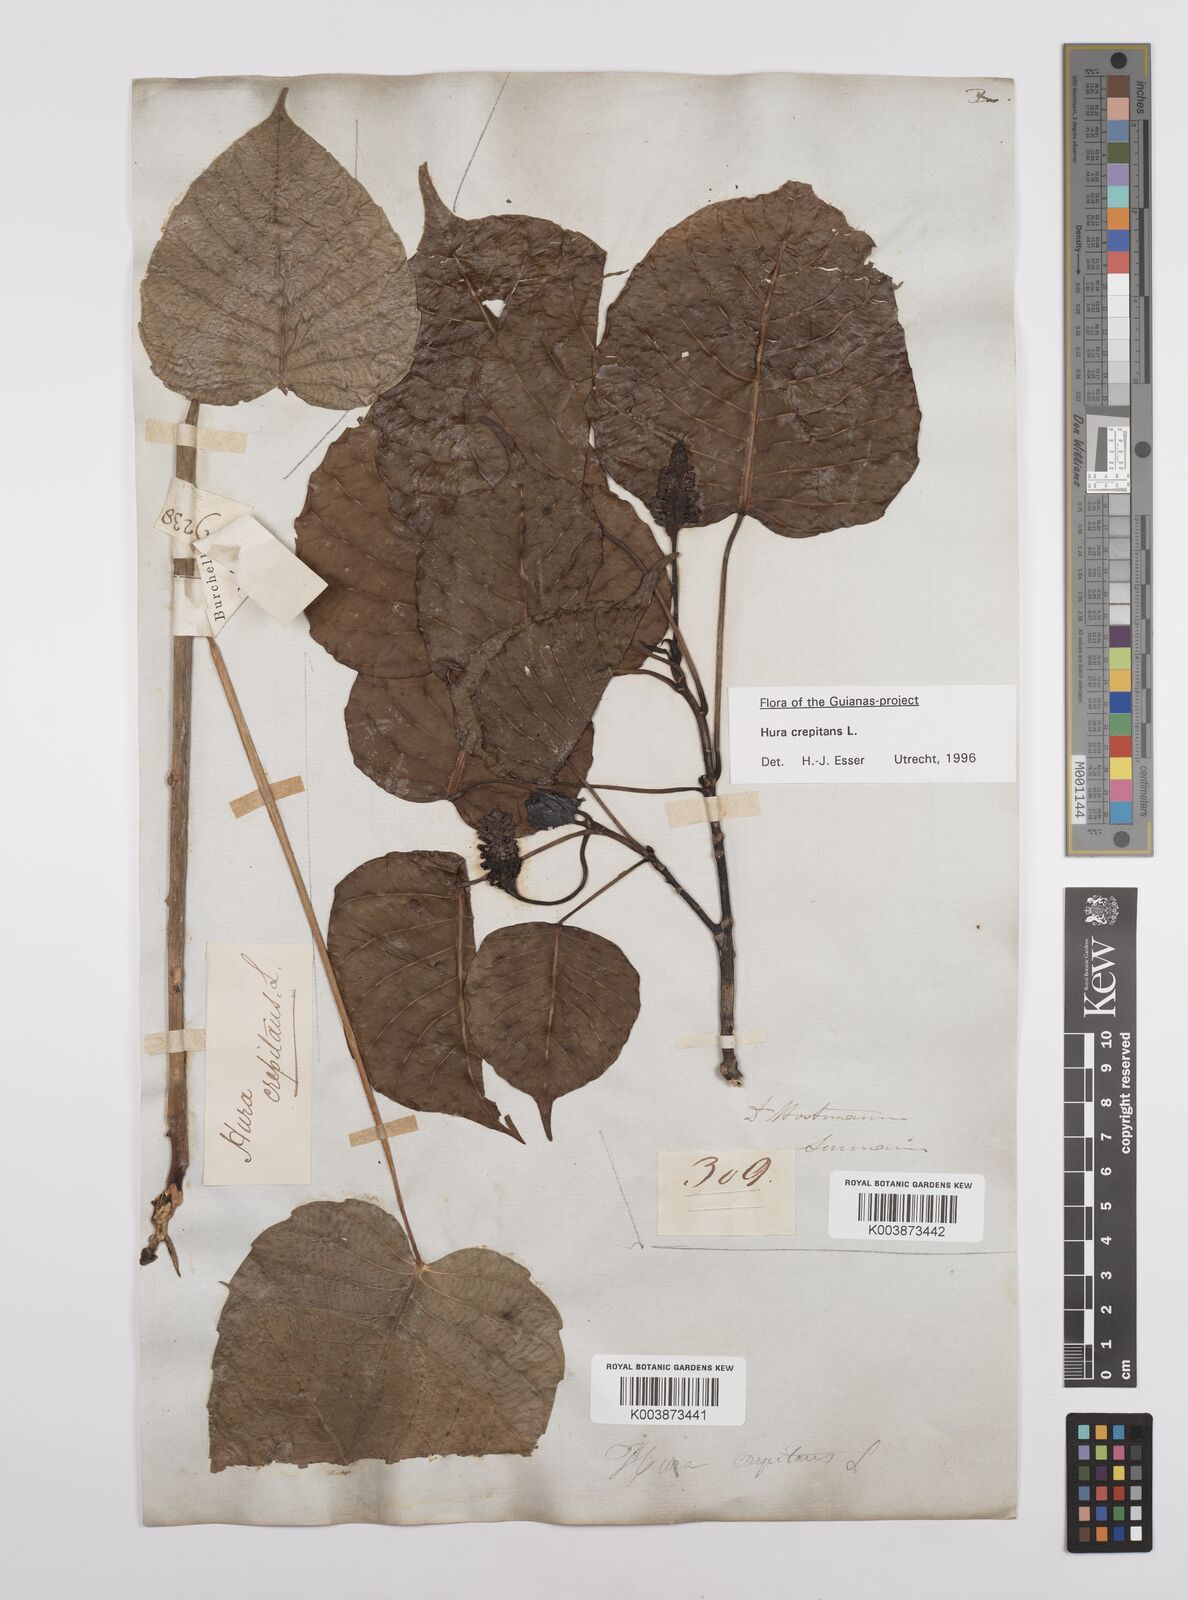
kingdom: Plantae
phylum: Tracheophyta
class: Magnoliopsida
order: Malpighiales
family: Euphorbiaceae
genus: Hura
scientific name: Hura crepitans
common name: Sandboxtree
